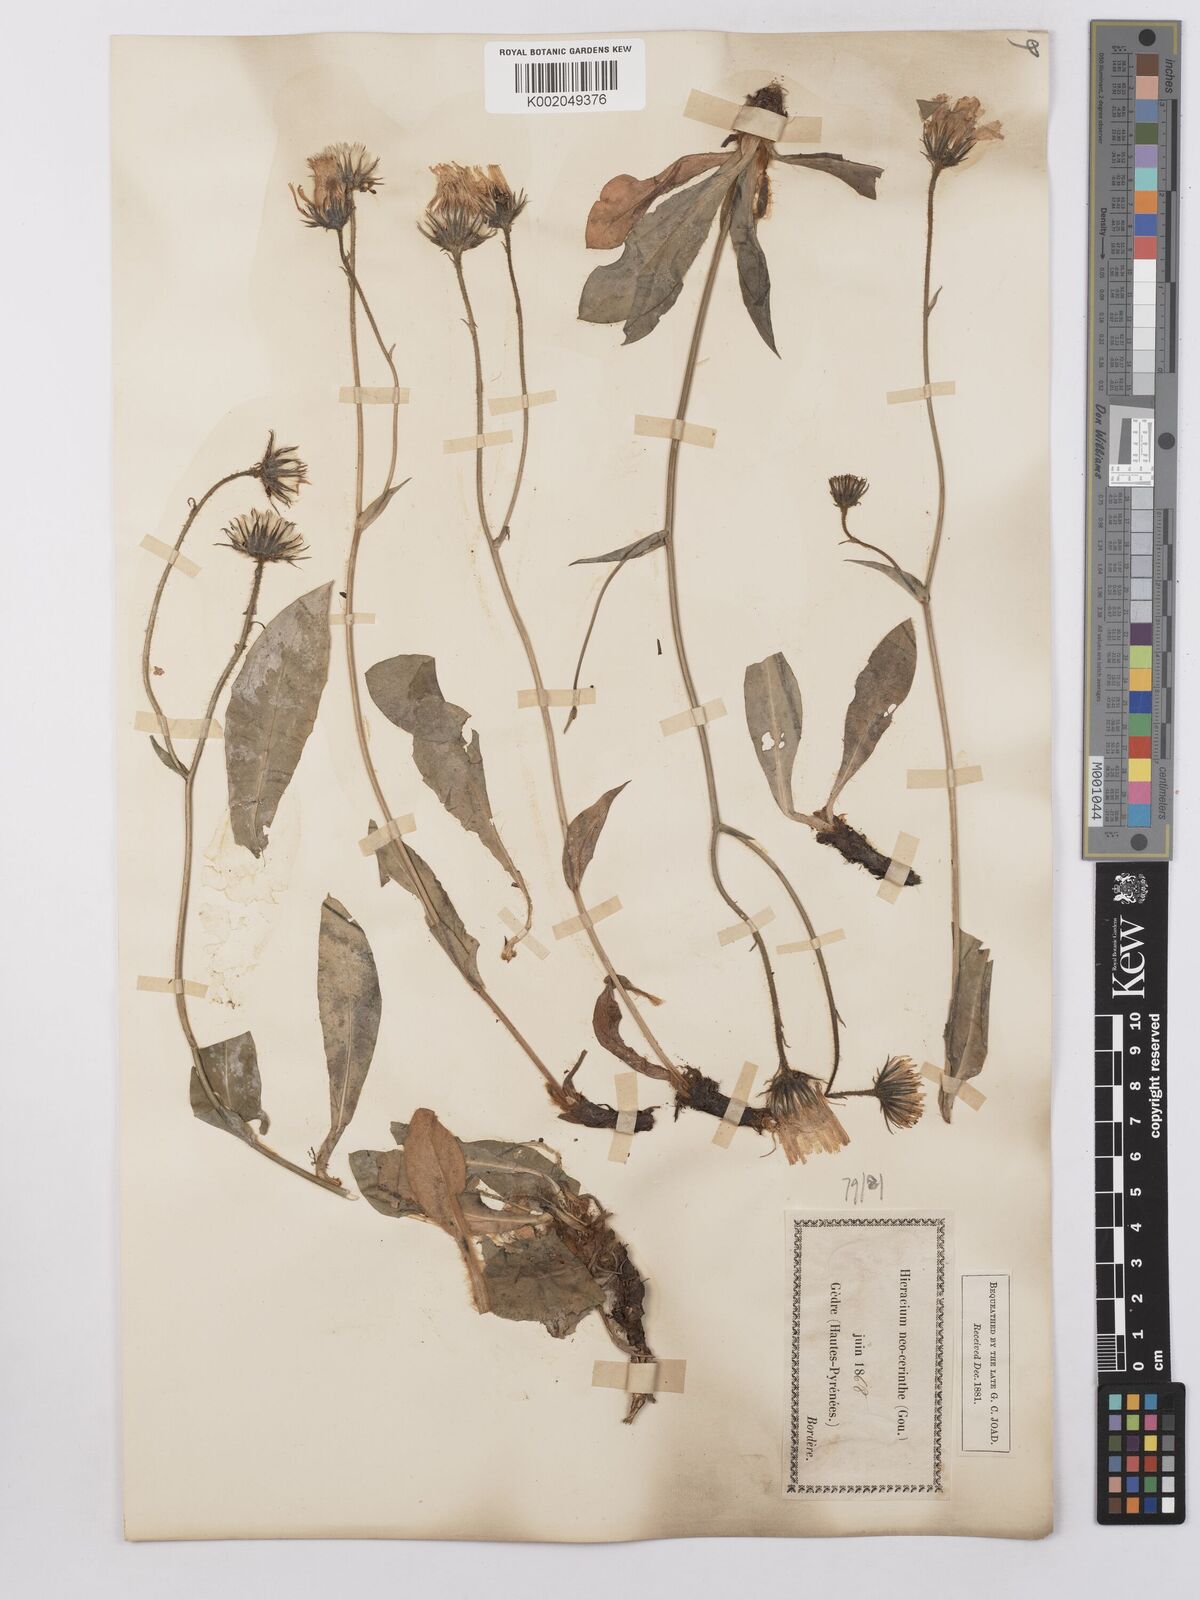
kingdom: Plantae
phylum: Tracheophyta
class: Magnoliopsida
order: Asterales
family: Asteraceae
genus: Hieracium
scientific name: Hieracium cerinthoides
